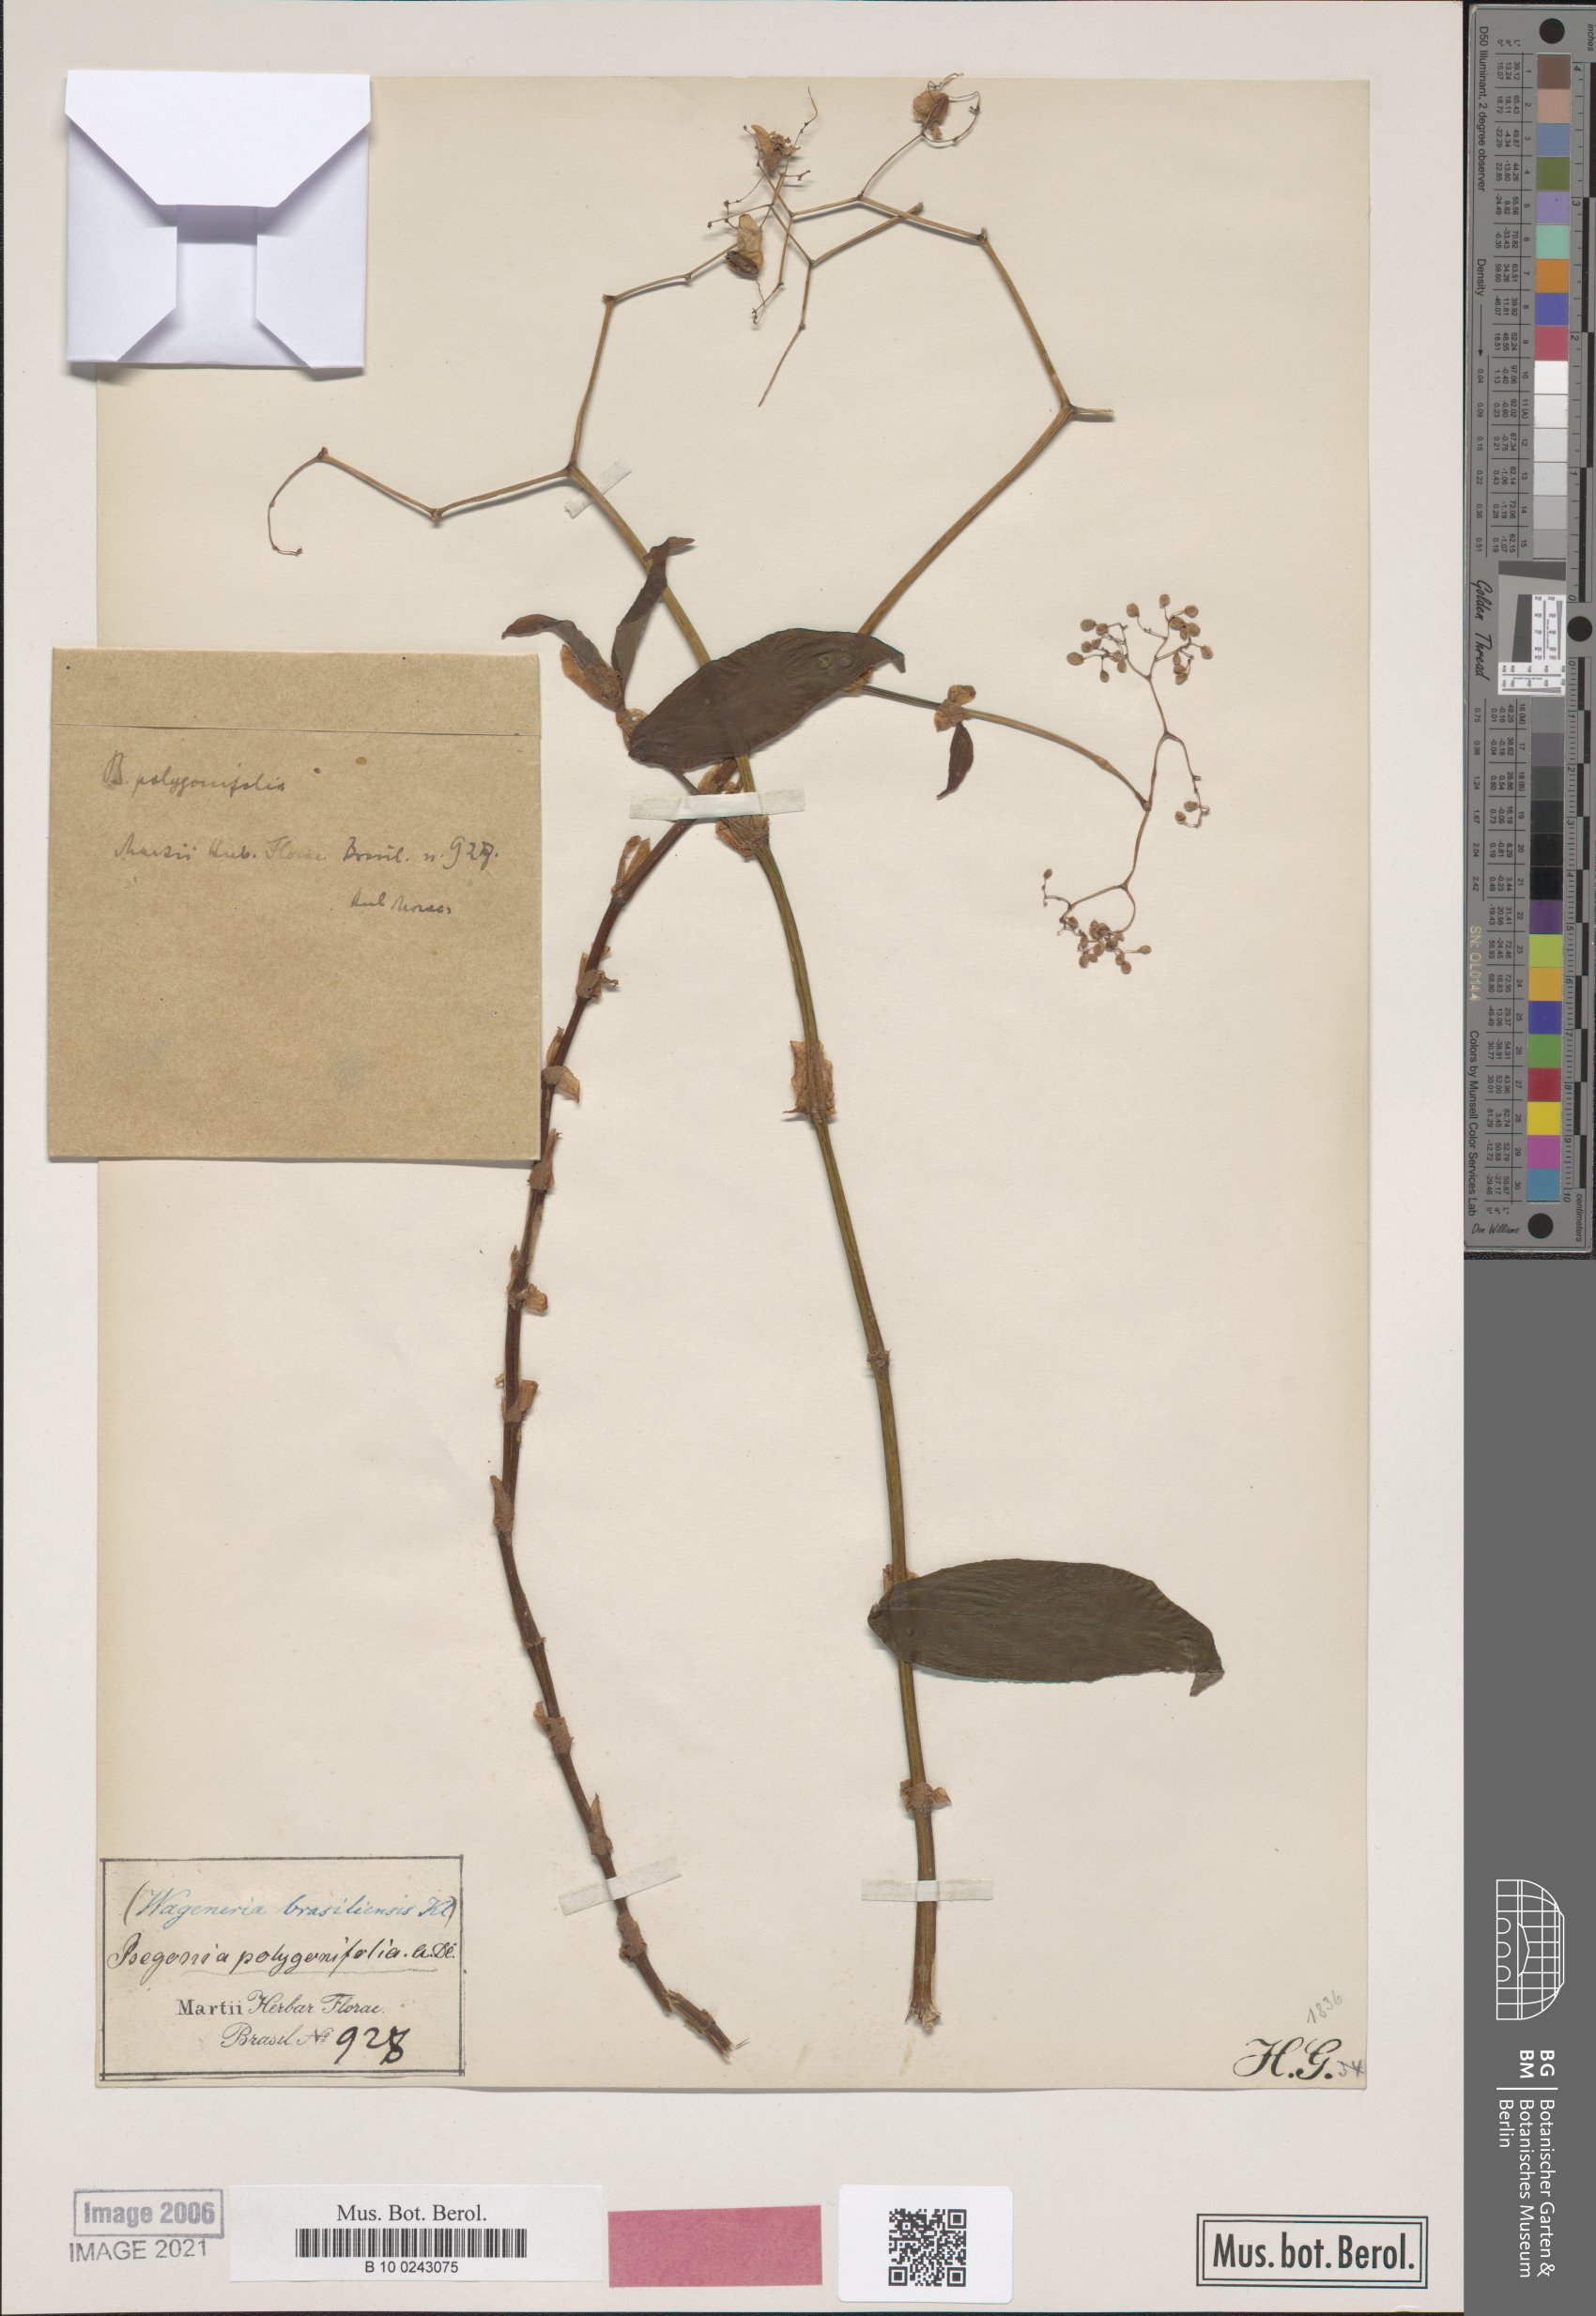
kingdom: Plantae
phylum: Tracheophyta
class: Magnoliopsida
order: Cucurbitales
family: Begoniaceae
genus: Begonia
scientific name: Begonia polygonifolia
